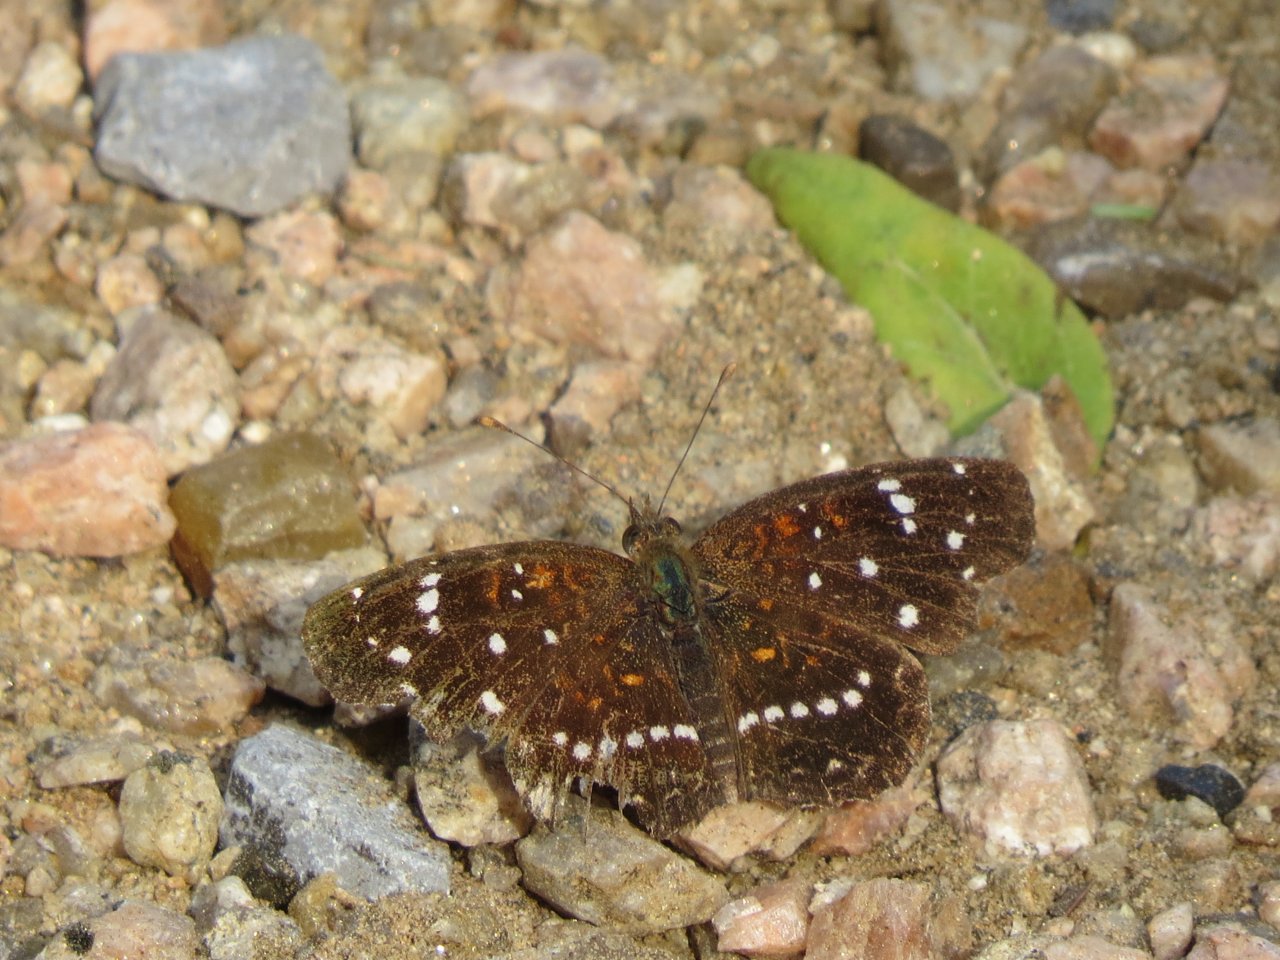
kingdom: Animalia
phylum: Arthropoda
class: Insecta
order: Lepidoptera
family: Nymphalidae
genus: Anthanassa
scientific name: Anthanassa texana
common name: Texan Crescent
